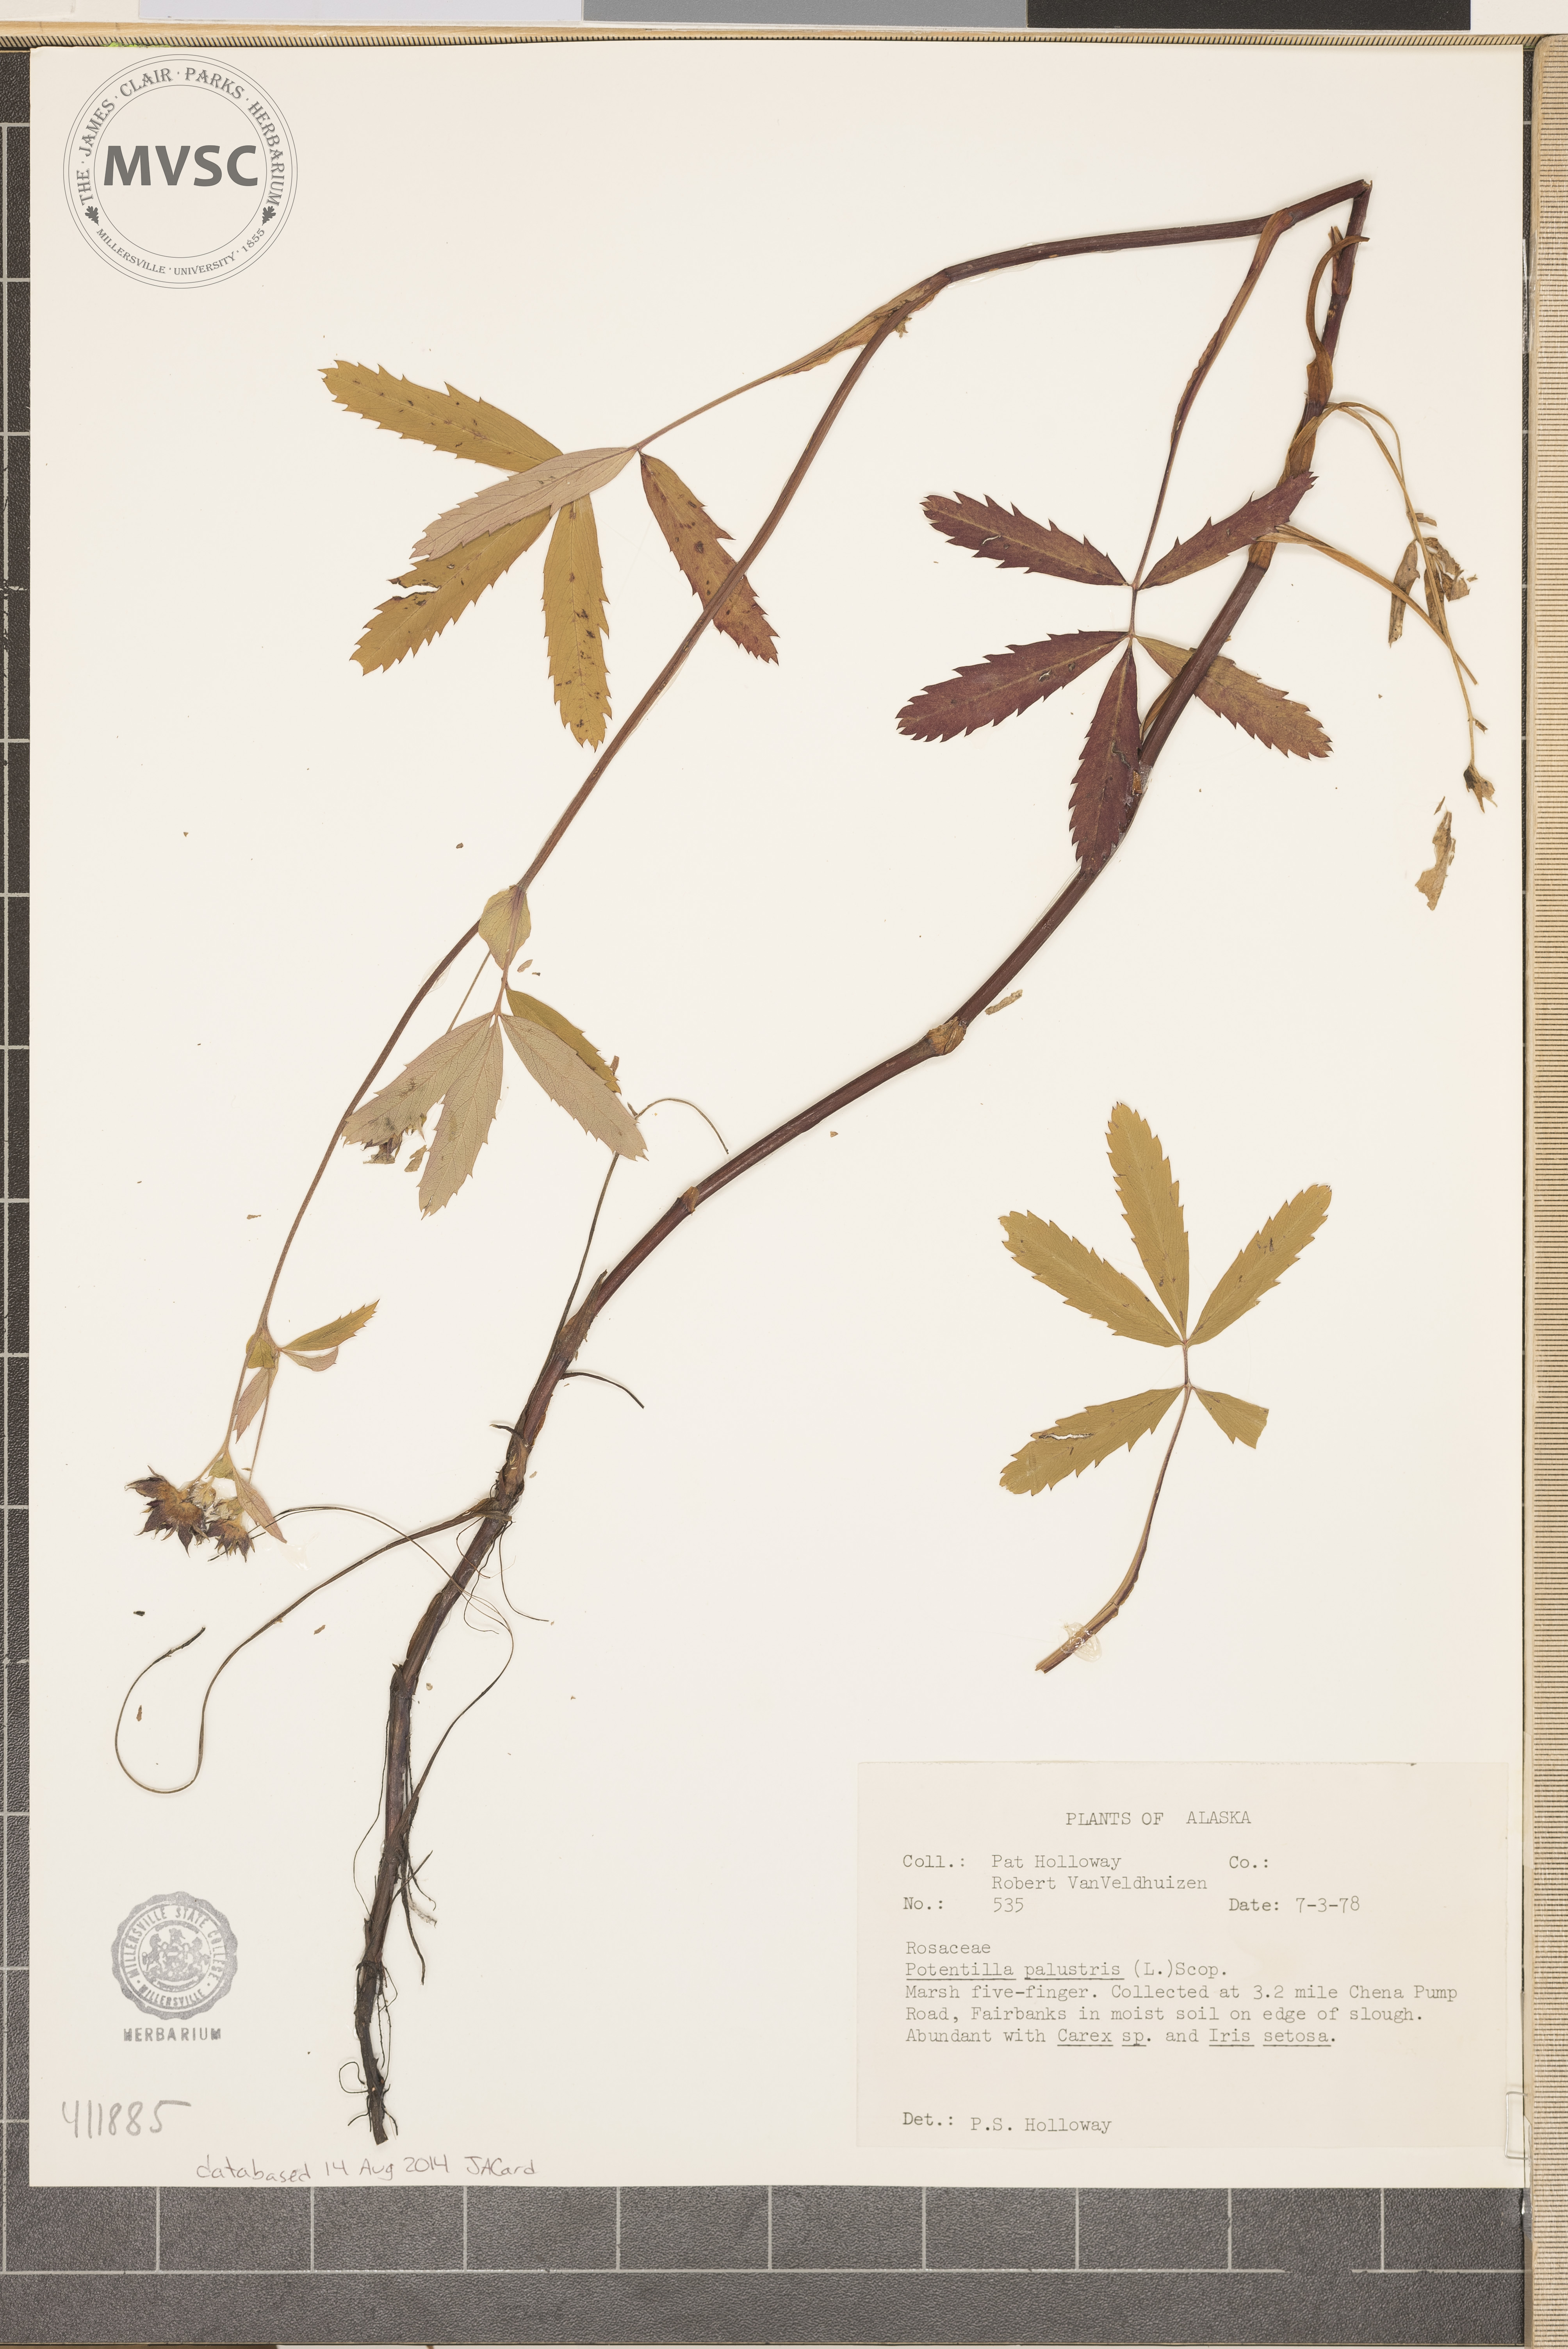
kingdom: Plantae
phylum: Tracheophyta
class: Magnoliopsida
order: Rosales
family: Rosaceae
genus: Comarum
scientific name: Comarum palustre
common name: Marsh cinquefoil
